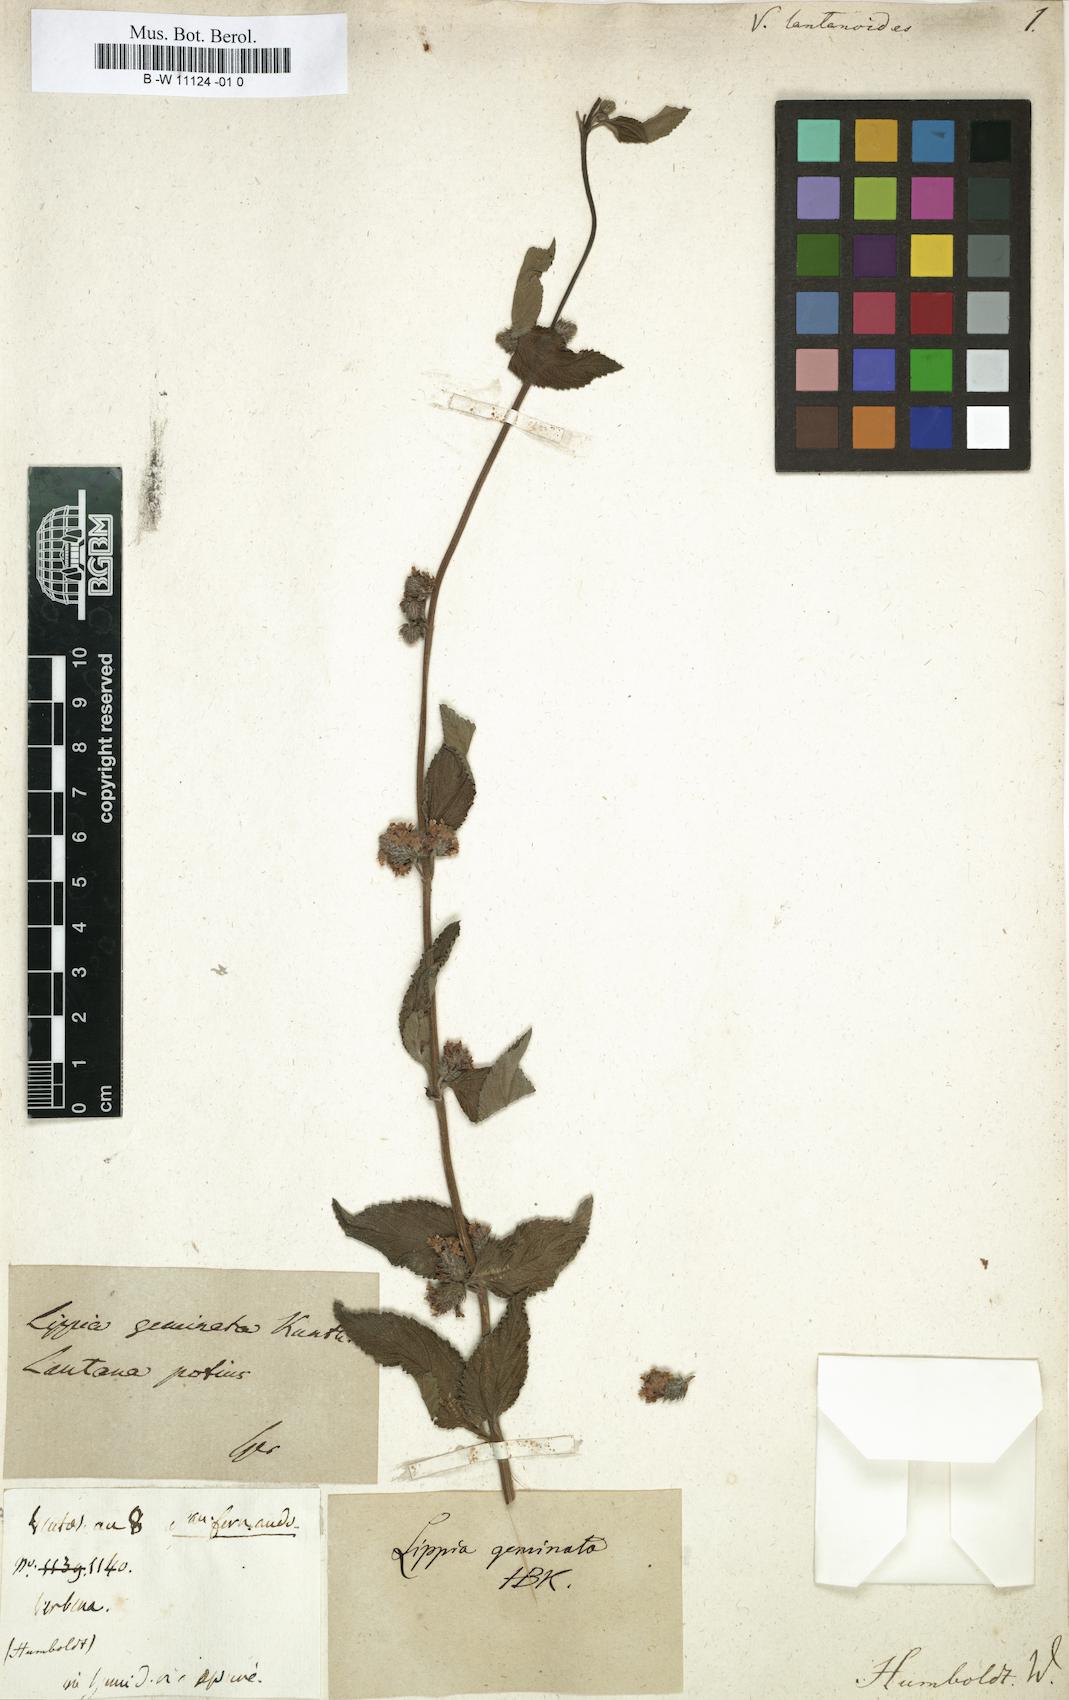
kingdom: Plantae
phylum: Tracheophyta
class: Magnoliopsida
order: Lamiales
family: Verbenaceae
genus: Lippia
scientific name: Lippia alba
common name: Bushy matgrass
